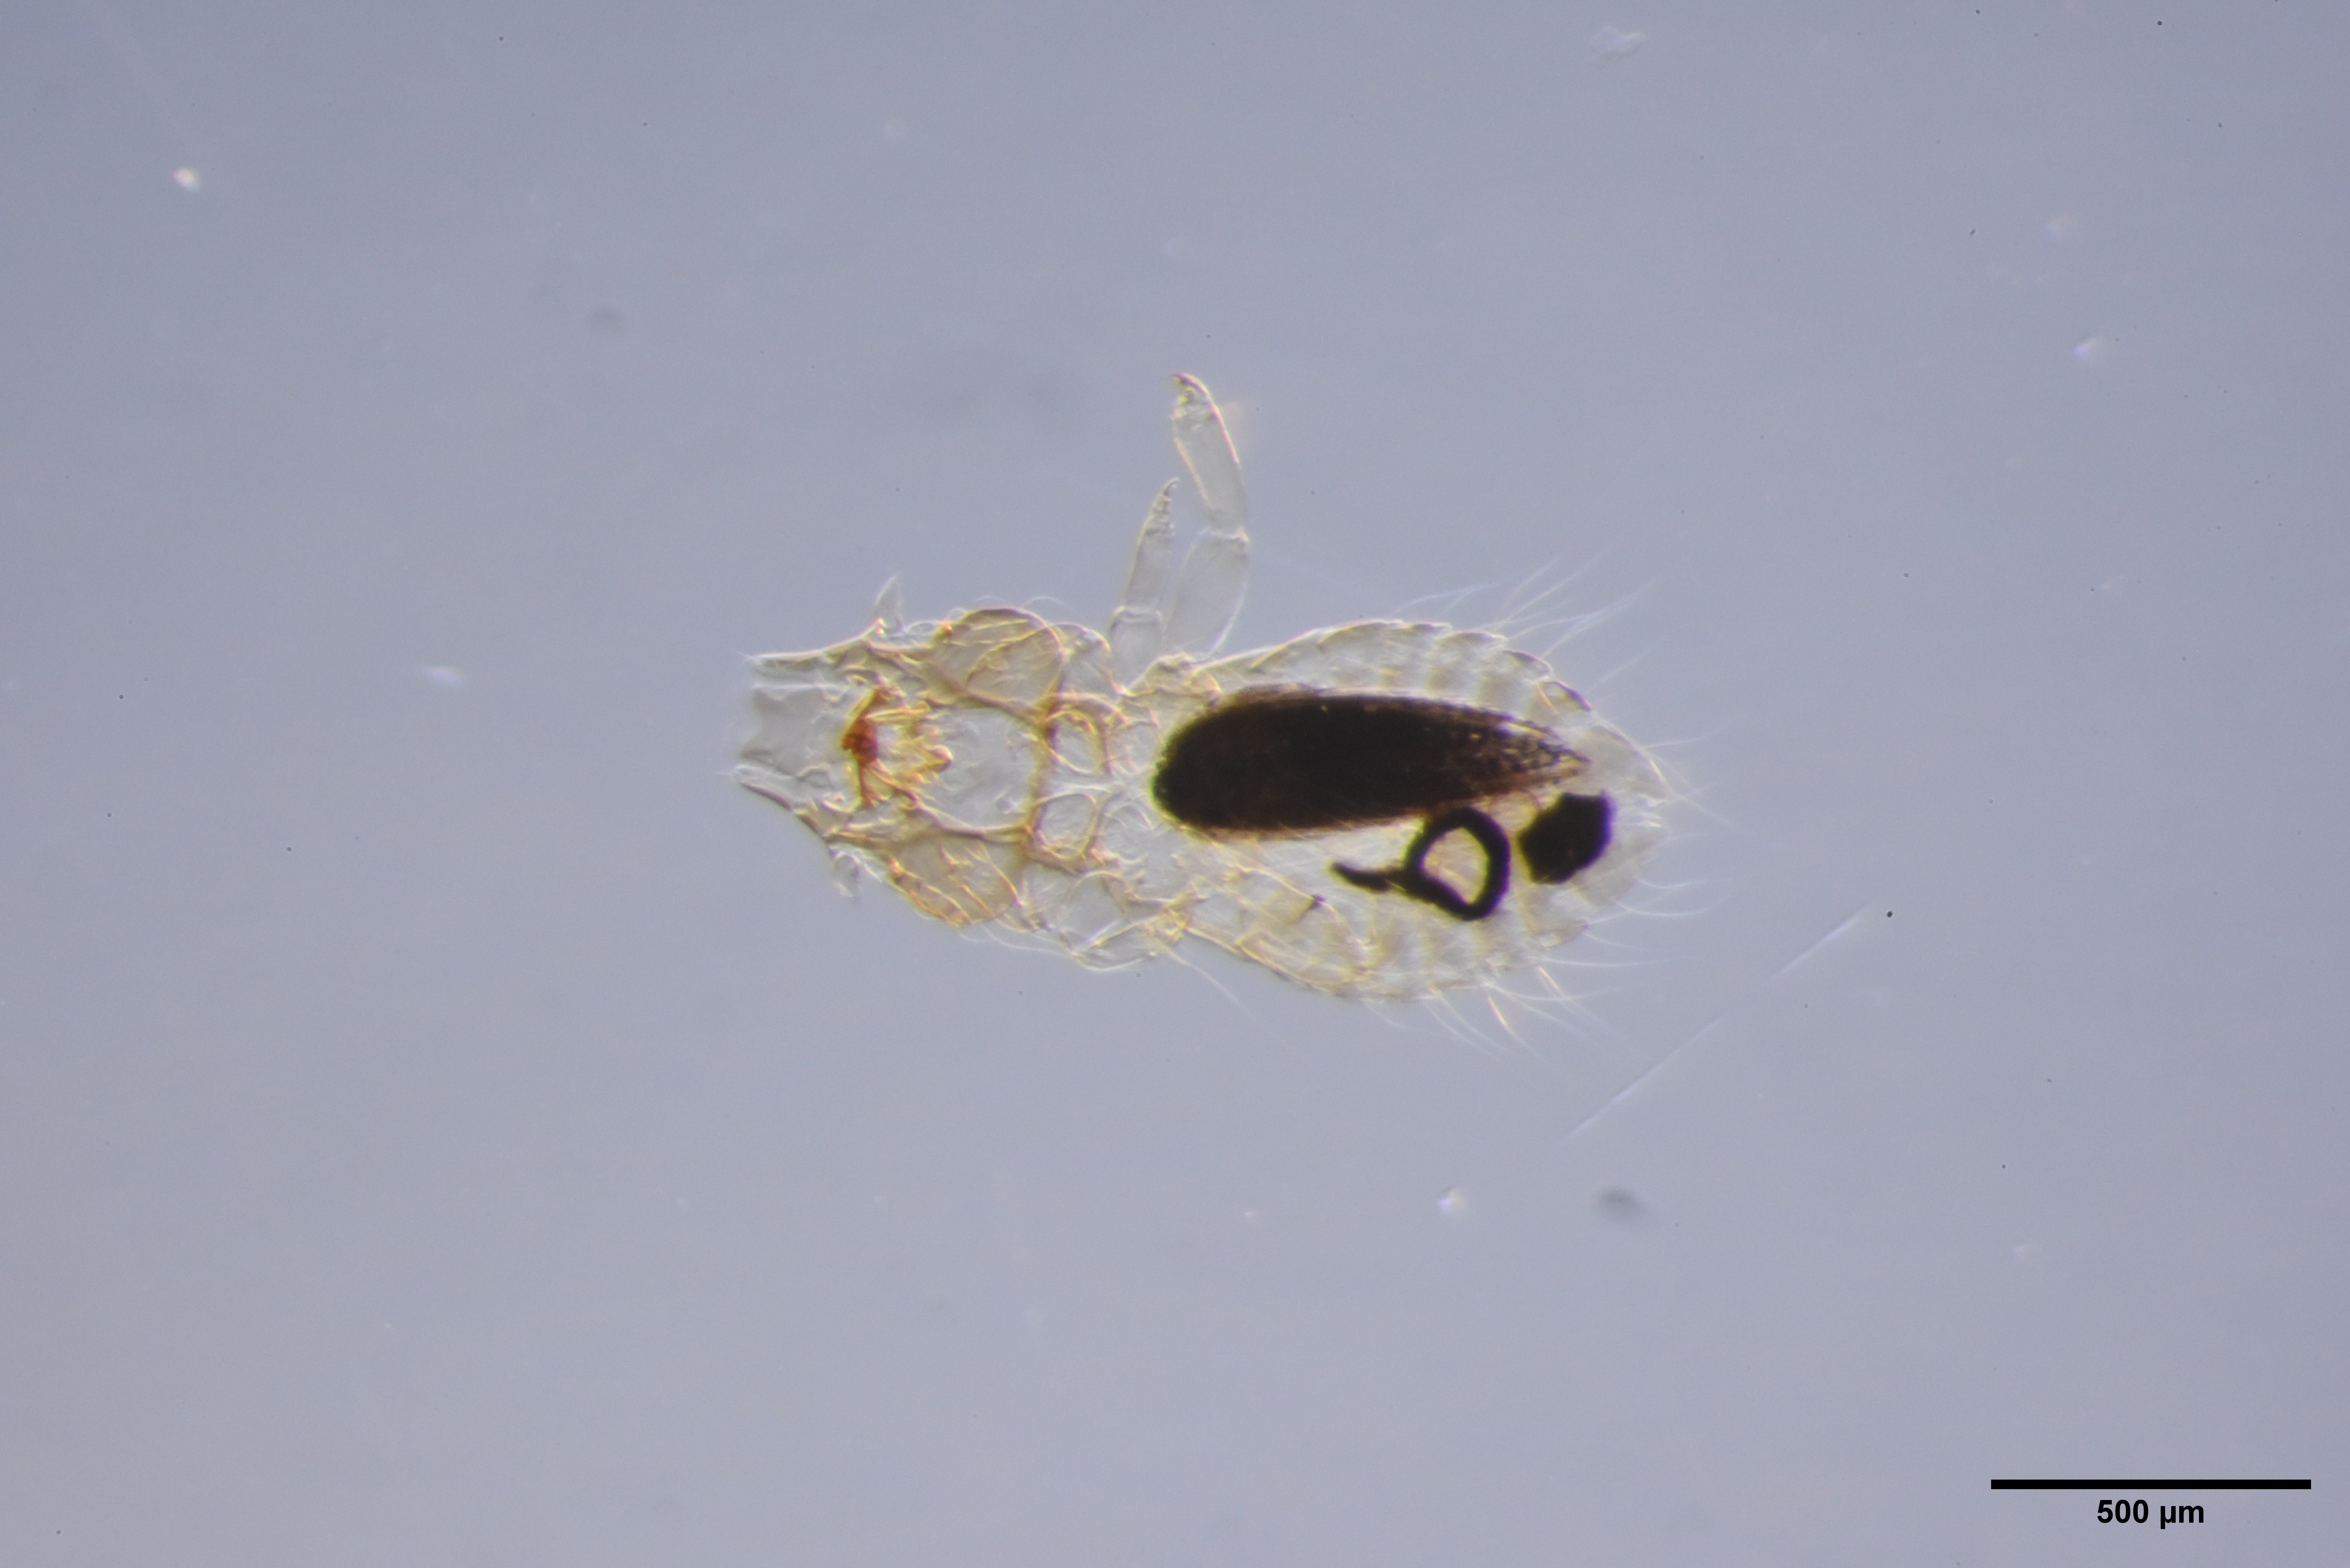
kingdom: Animalia
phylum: Arthropoda
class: Insecta
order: Psocodea
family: Philopteridae
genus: Philopterus
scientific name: Philopterus citrinellae
